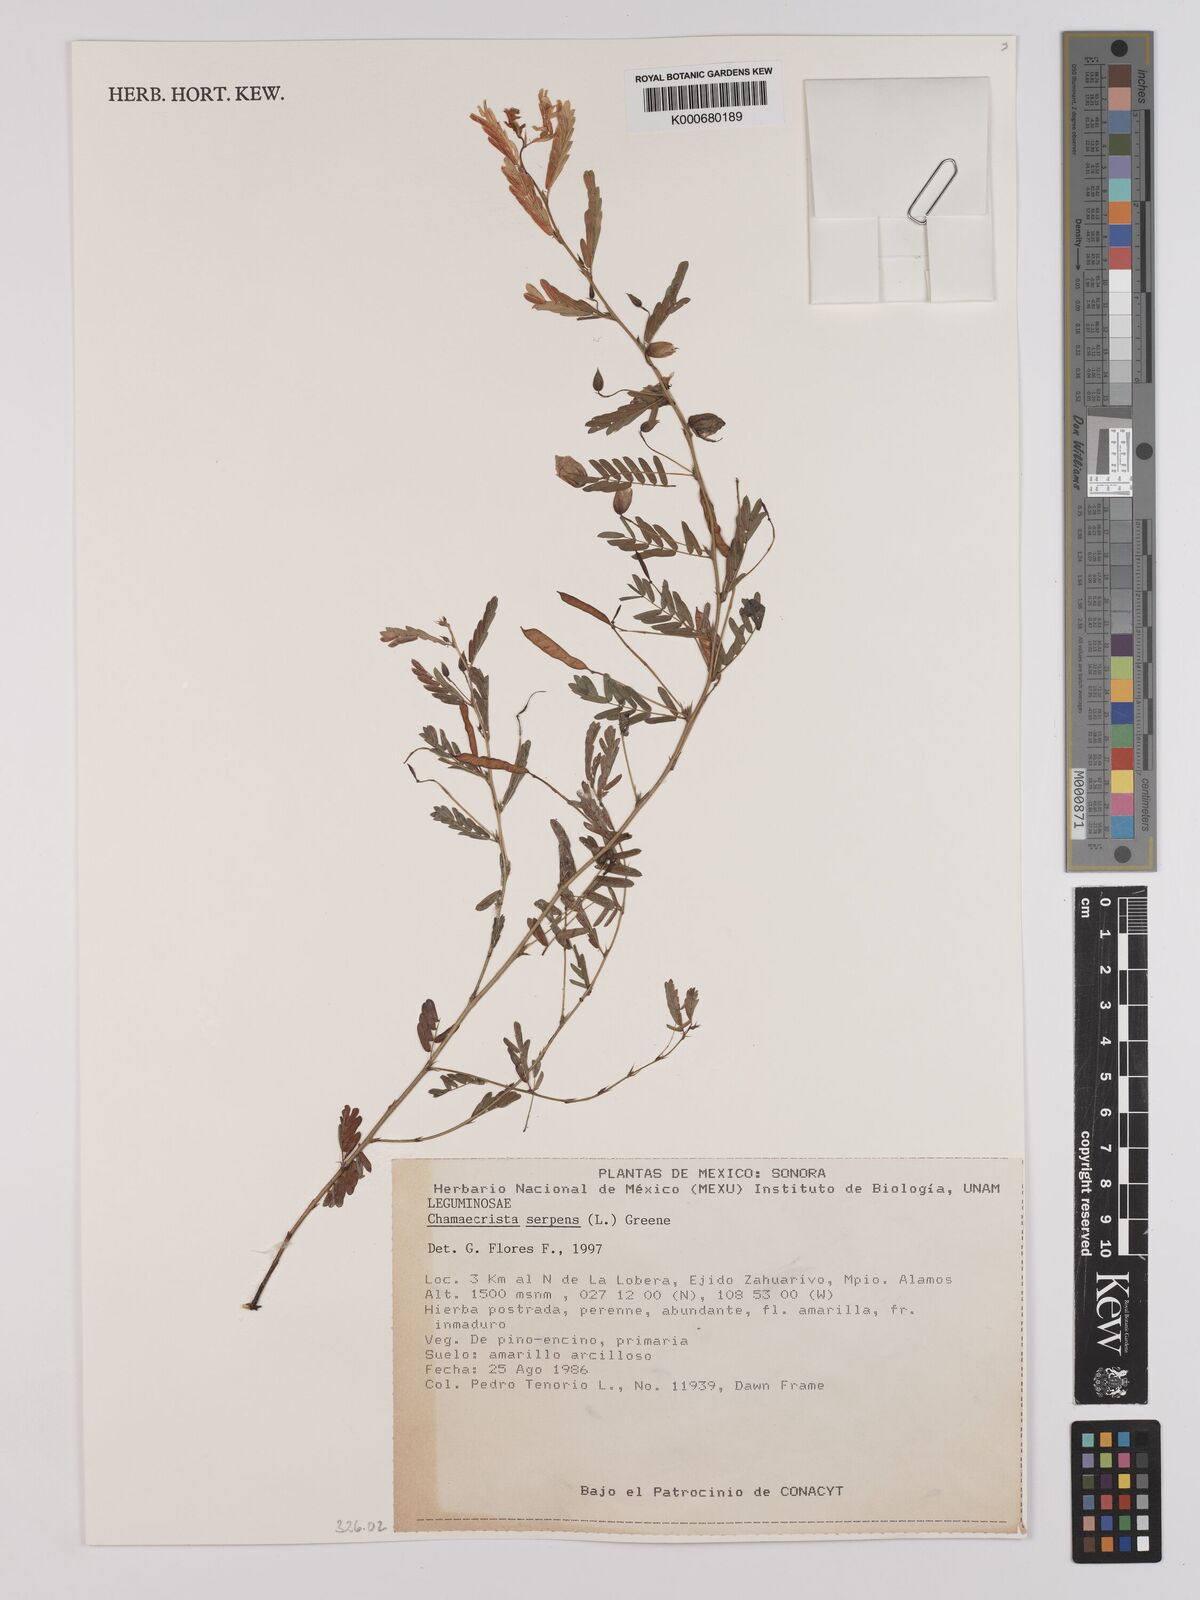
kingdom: Plantae
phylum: Tracheophyta
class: Magnoliopsida
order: Fabales
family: Fabaceae
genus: Chamaecrista
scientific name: Chamaecrista serpens
